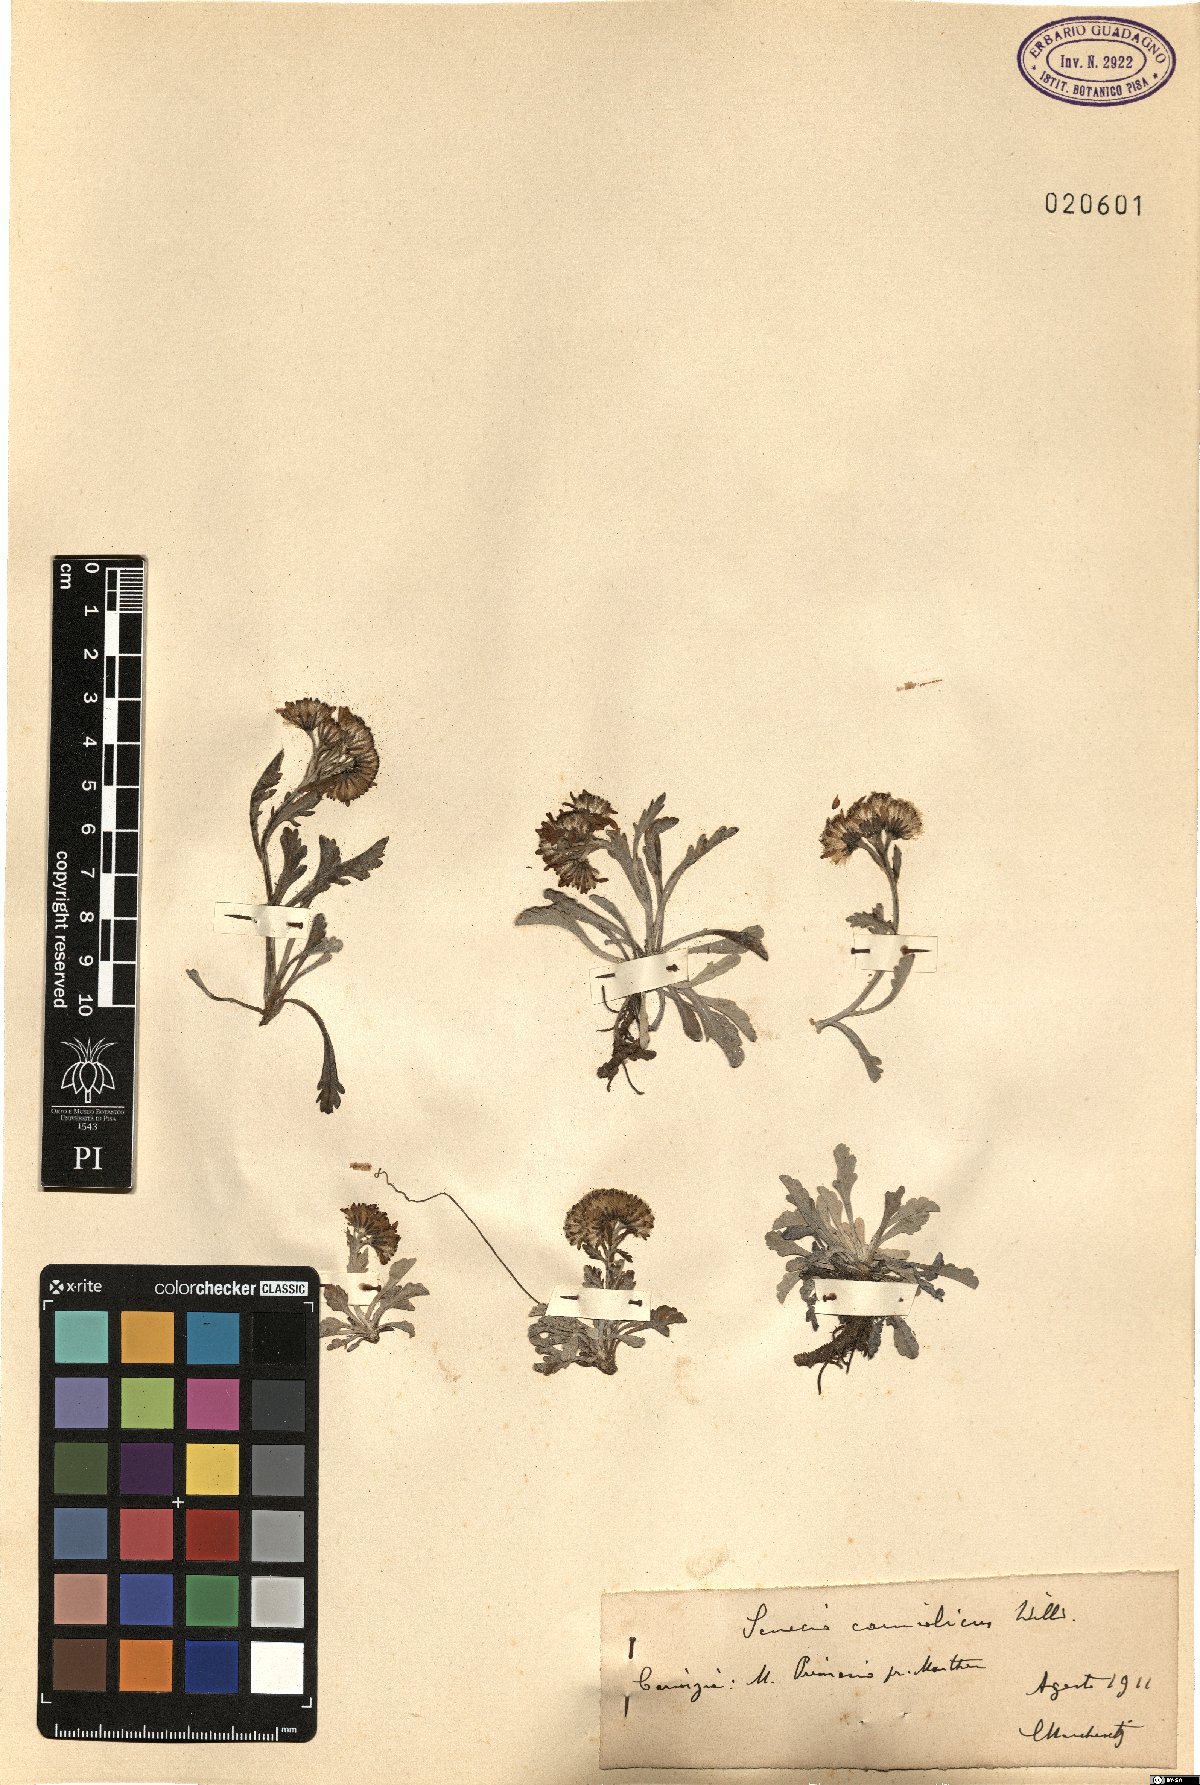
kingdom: Plantae
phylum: Tracheophyta
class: Magnoliopsida
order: Asterales
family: Asteraceae
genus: Jacobaea
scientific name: Jacobaea carniolica
